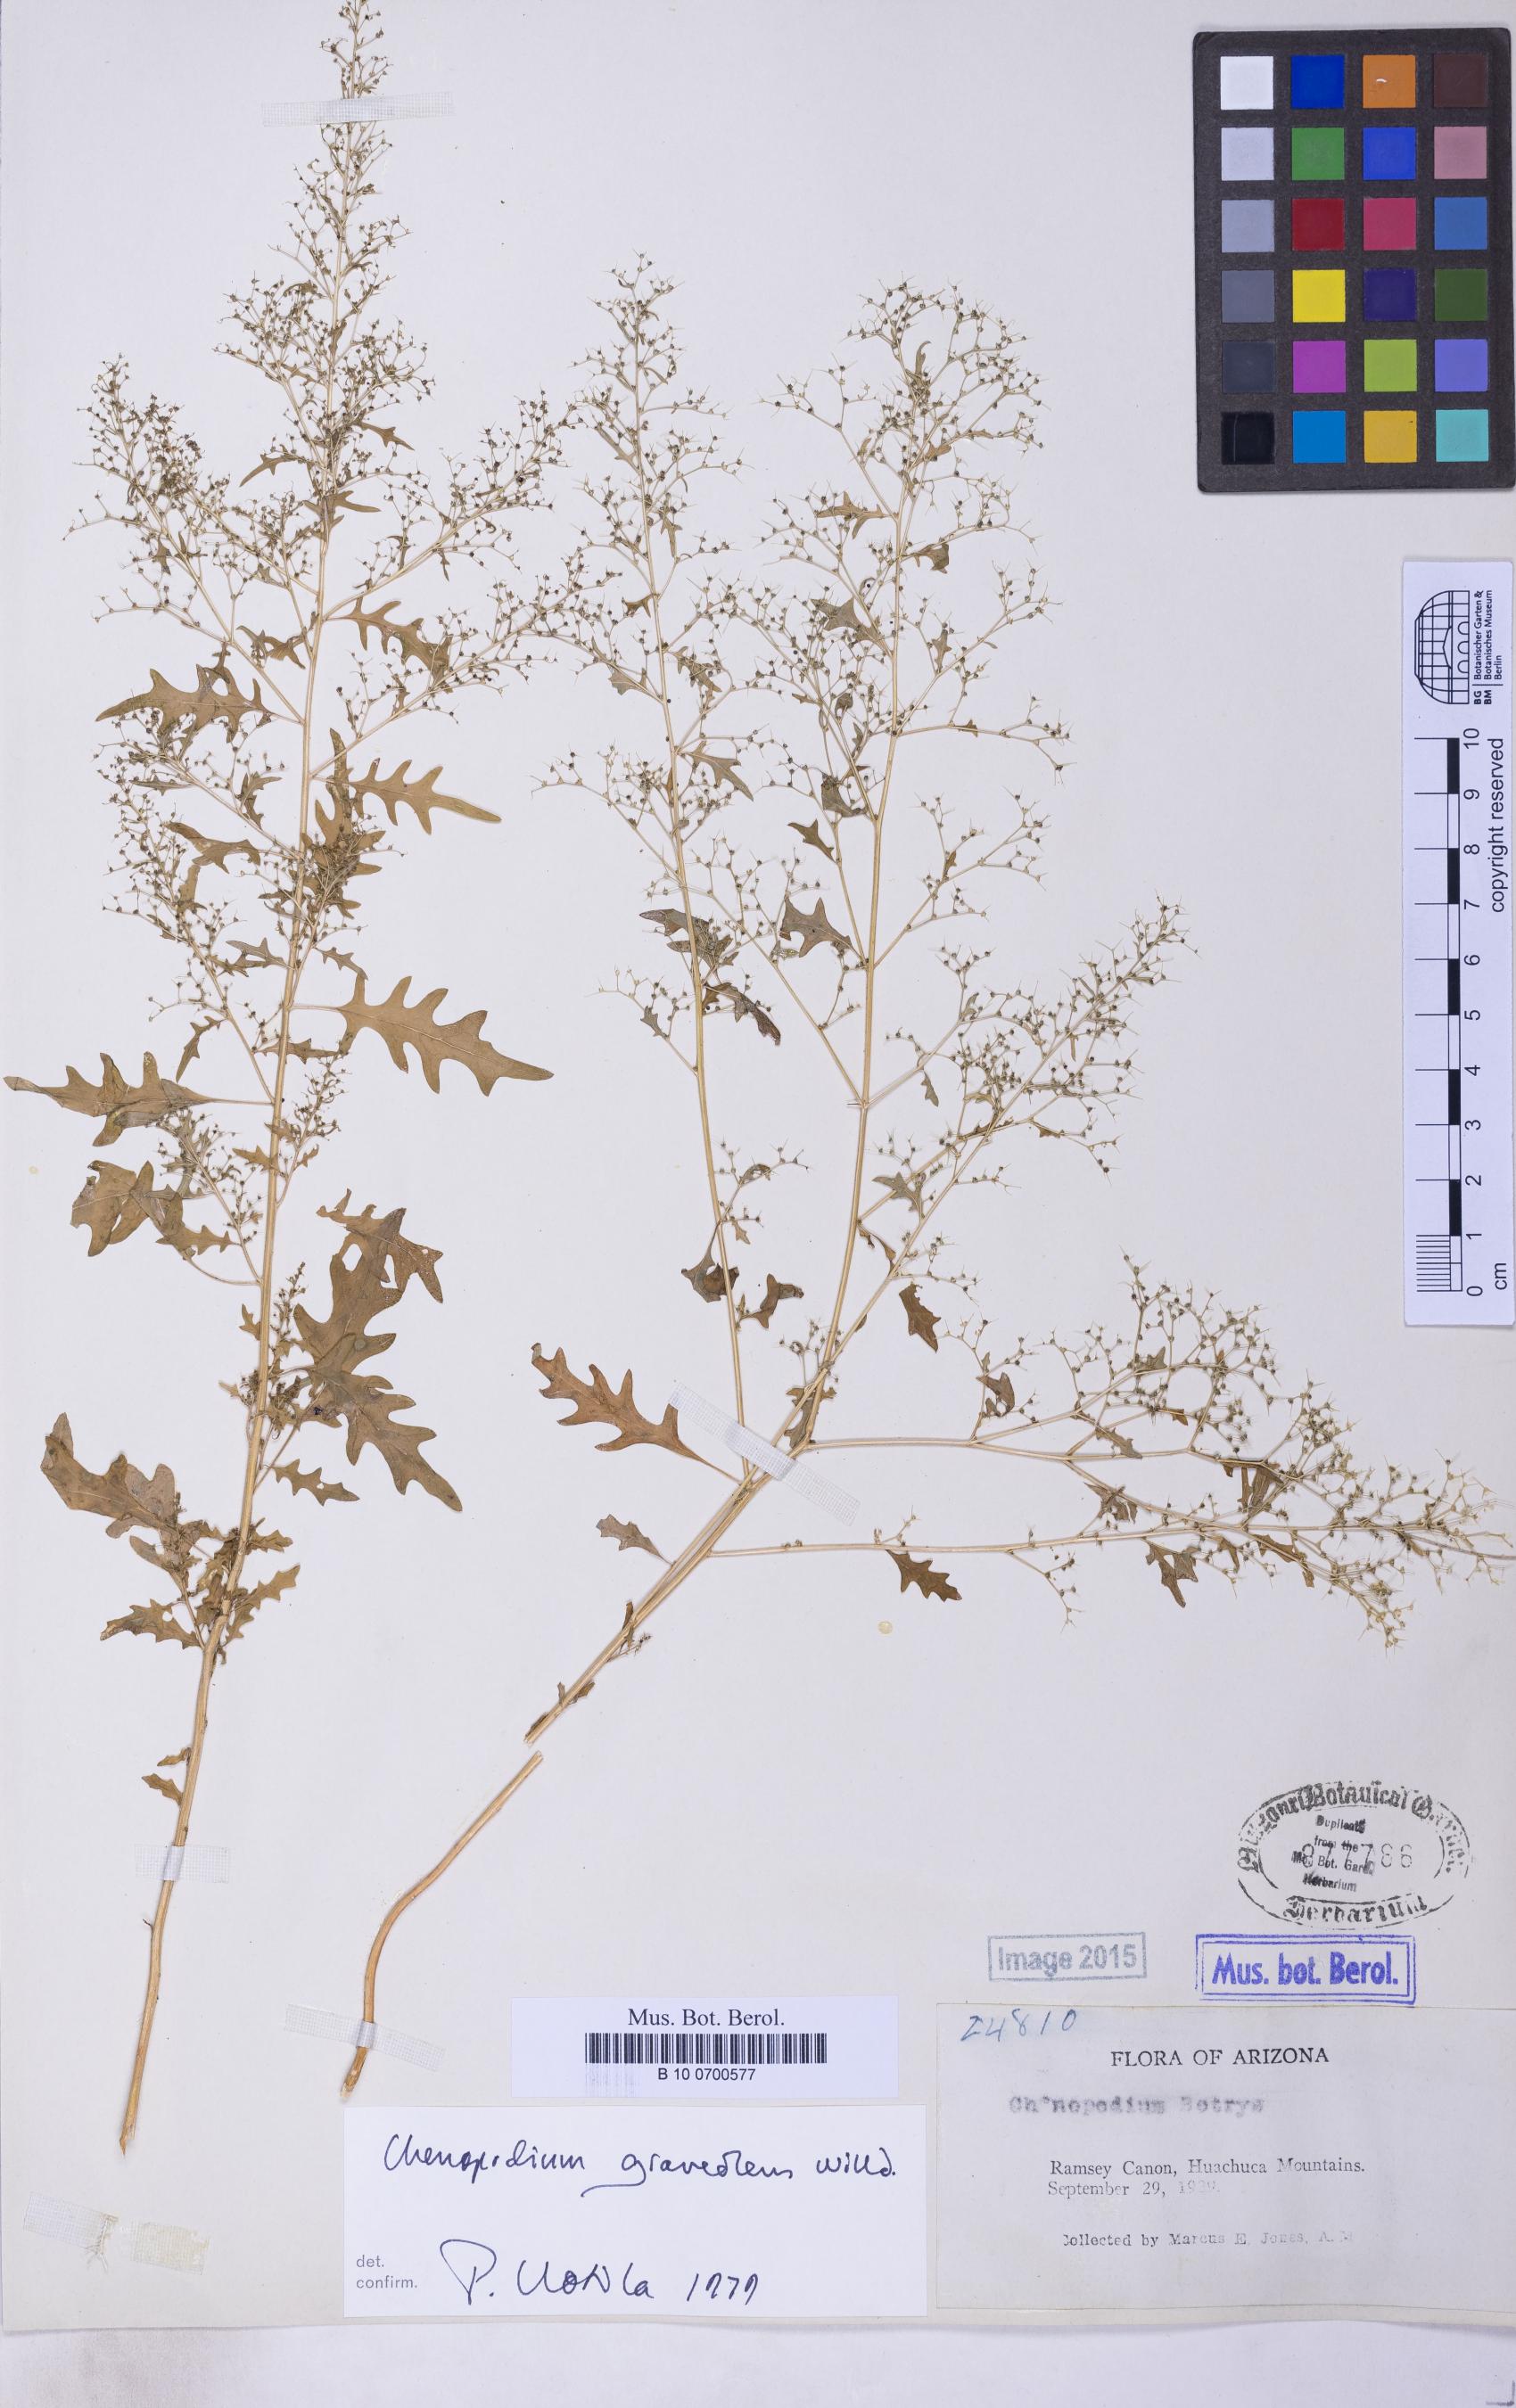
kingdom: Plantae
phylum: Tracheophyta
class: Magnoliopsida
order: Caryophyllales
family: Amaranthaceae
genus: Dysphania
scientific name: Dysphania incisa
